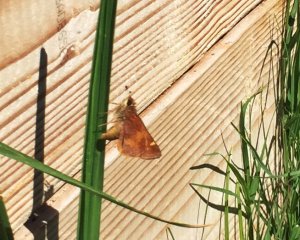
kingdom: Animalia
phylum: Arthropoda
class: Insecta
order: Lepidoptera
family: Hesperiidae
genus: Lon
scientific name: Lon melane
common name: Umber Skipper
